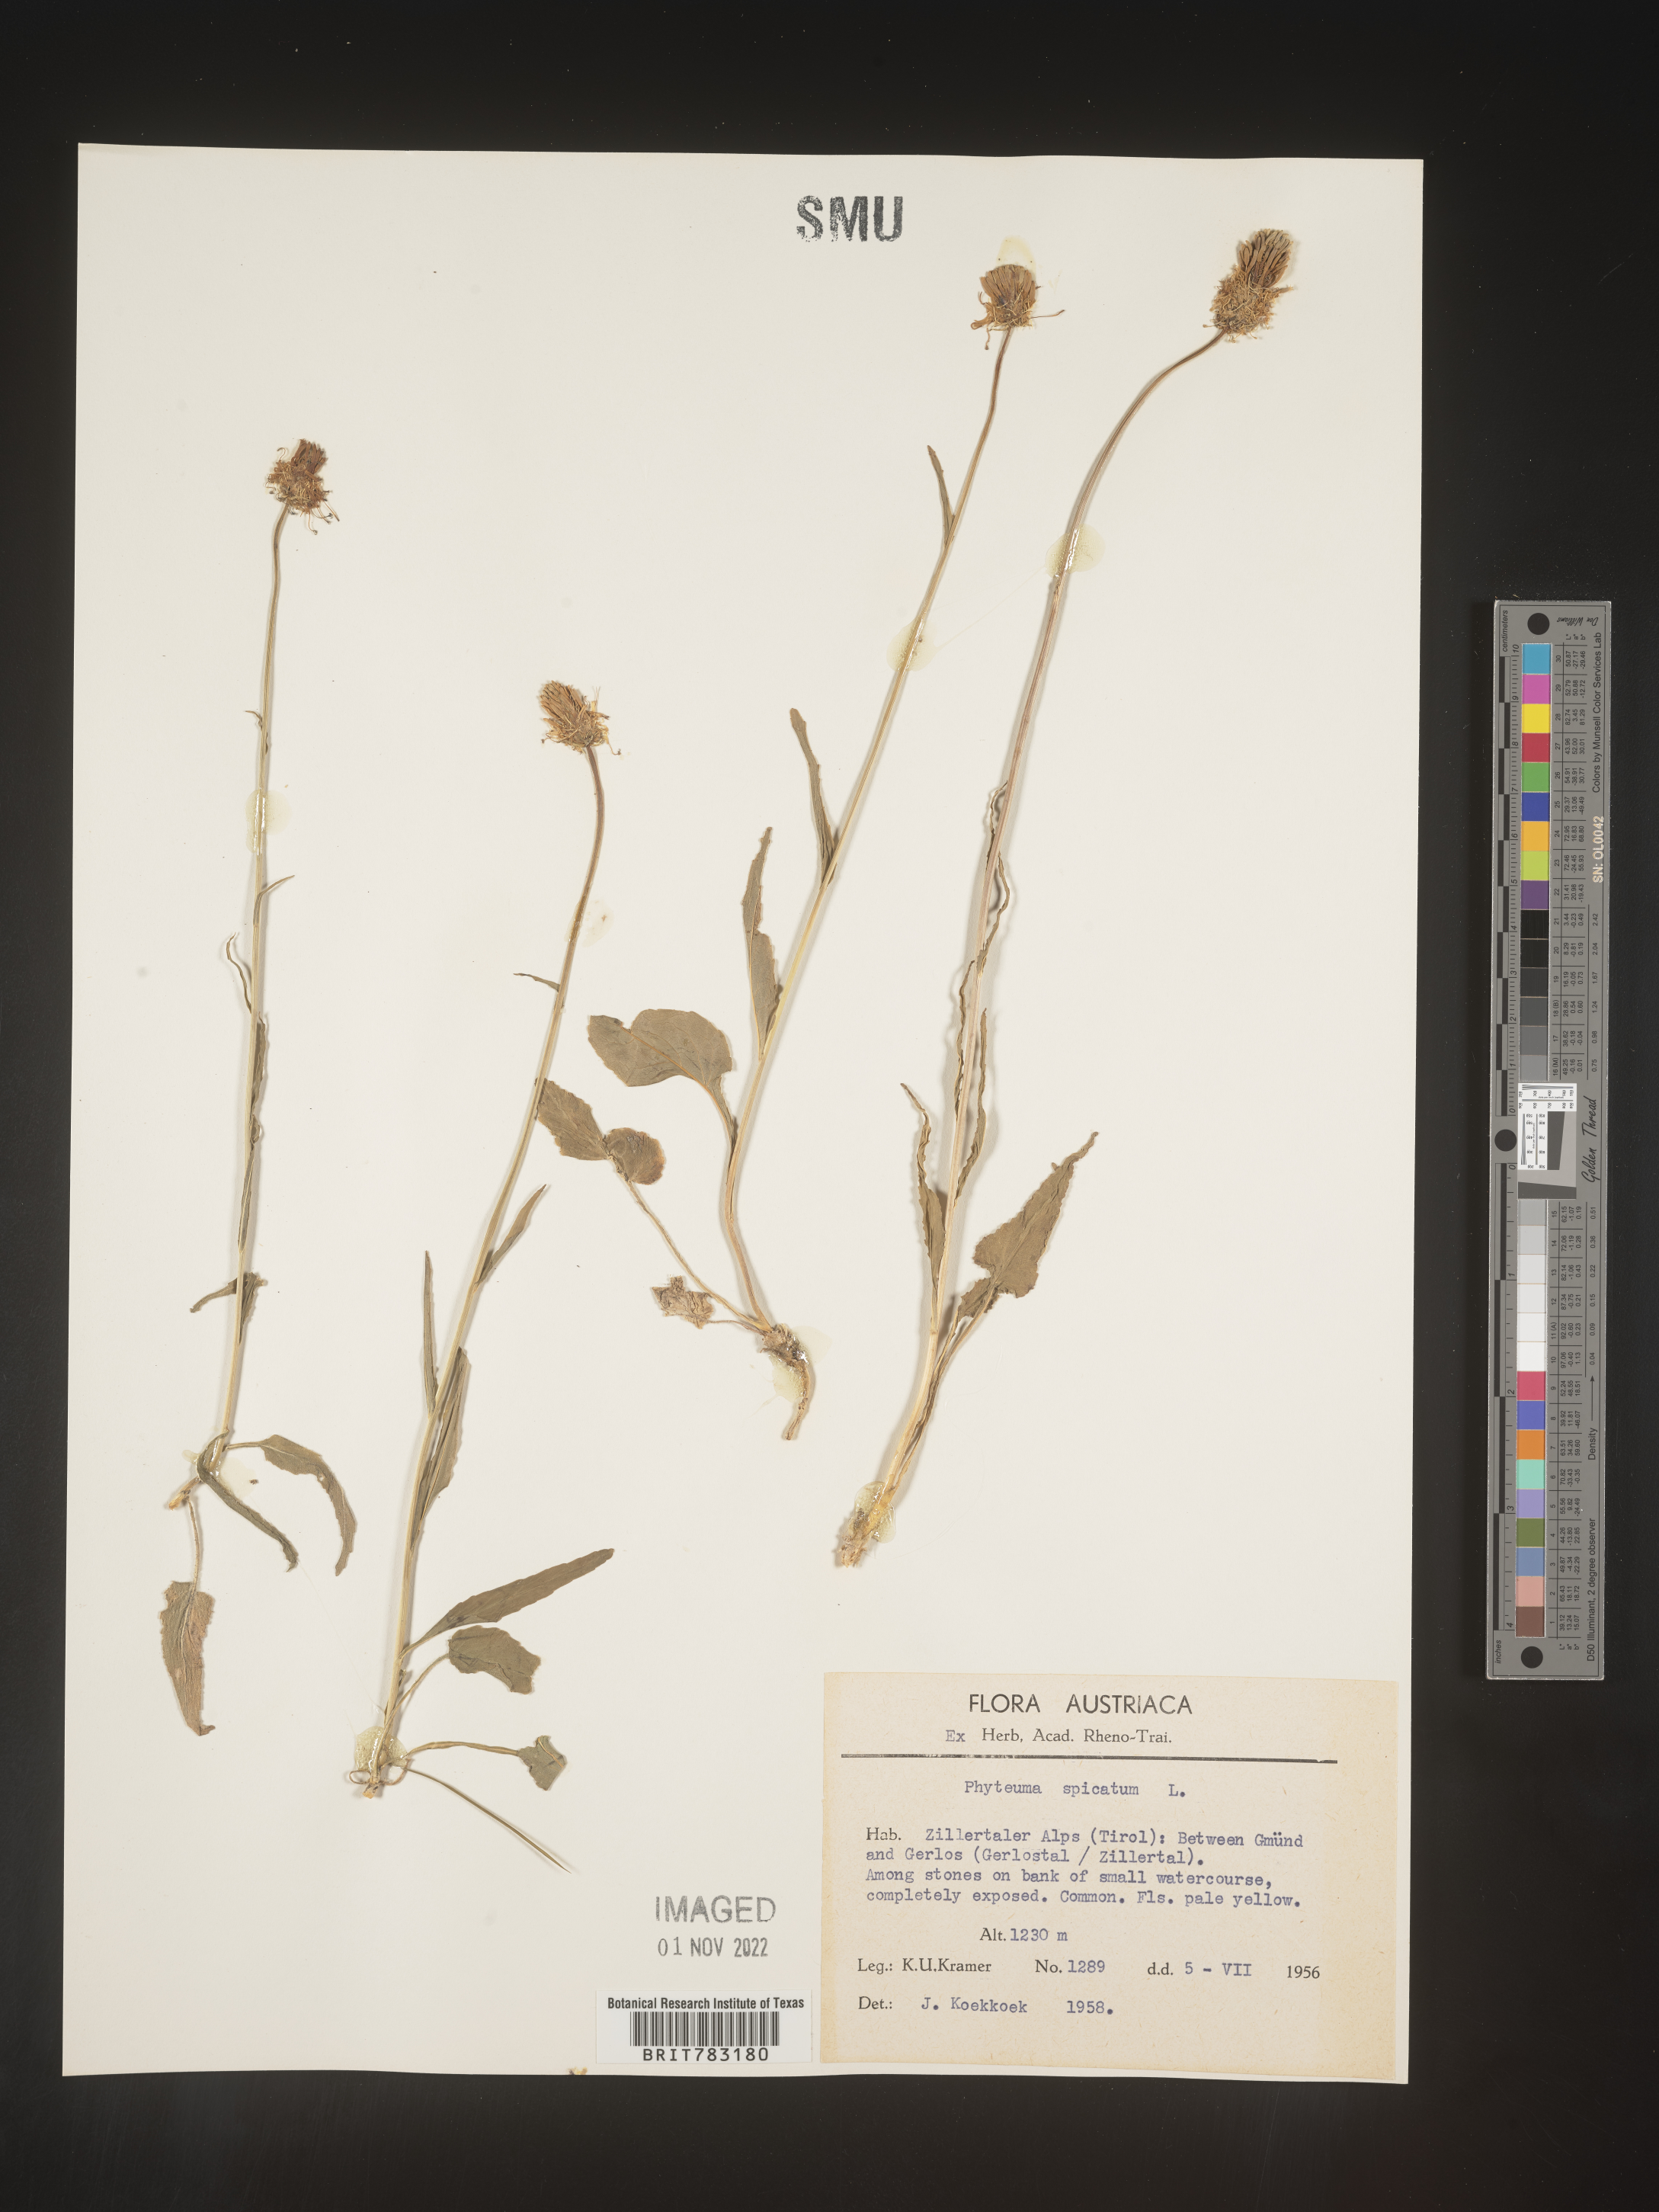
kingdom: Plantae
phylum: Tracheophyta
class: Magnoliopsida
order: Asterales
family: Campanulaceae
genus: Phyteuma
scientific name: Phyteuma
